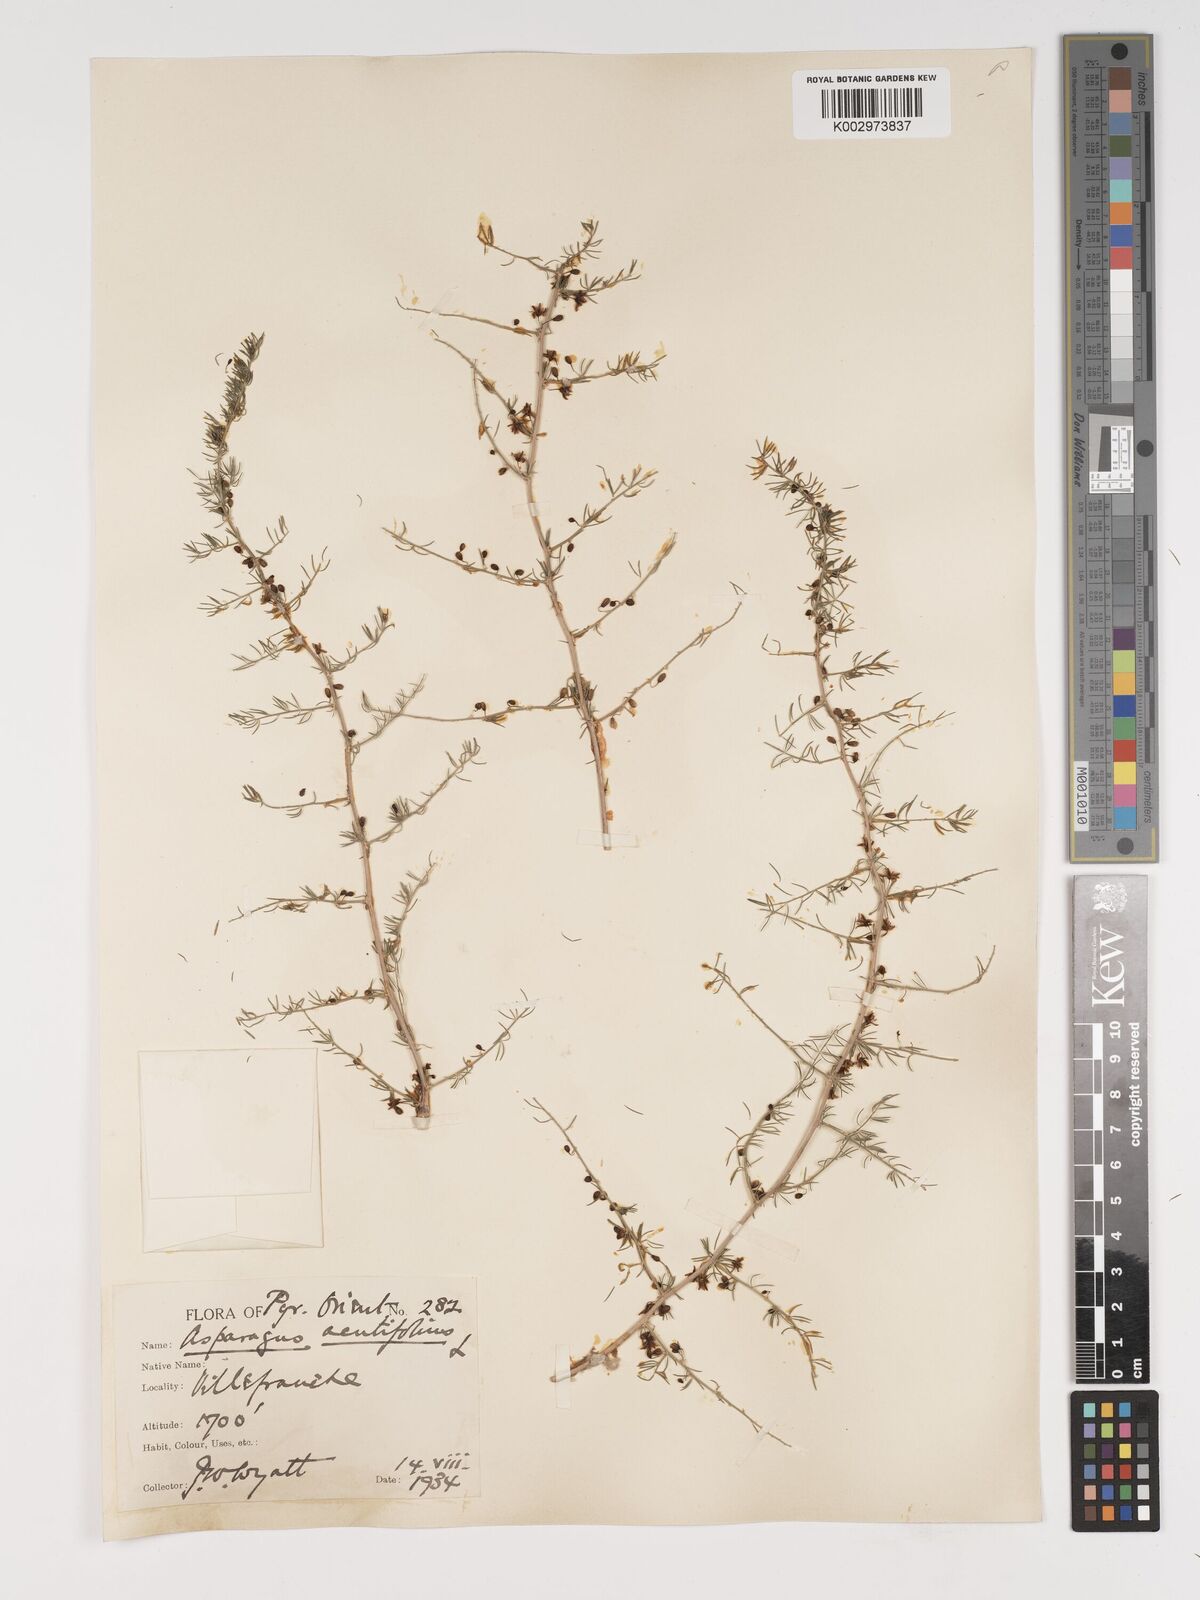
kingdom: Plantae
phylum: Tracheophyta
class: Liliopsida
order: Asparagales
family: Asparagaceae
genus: Asparagus
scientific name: Asparagus aethiopicus
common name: Sprenger's asparagus fern
